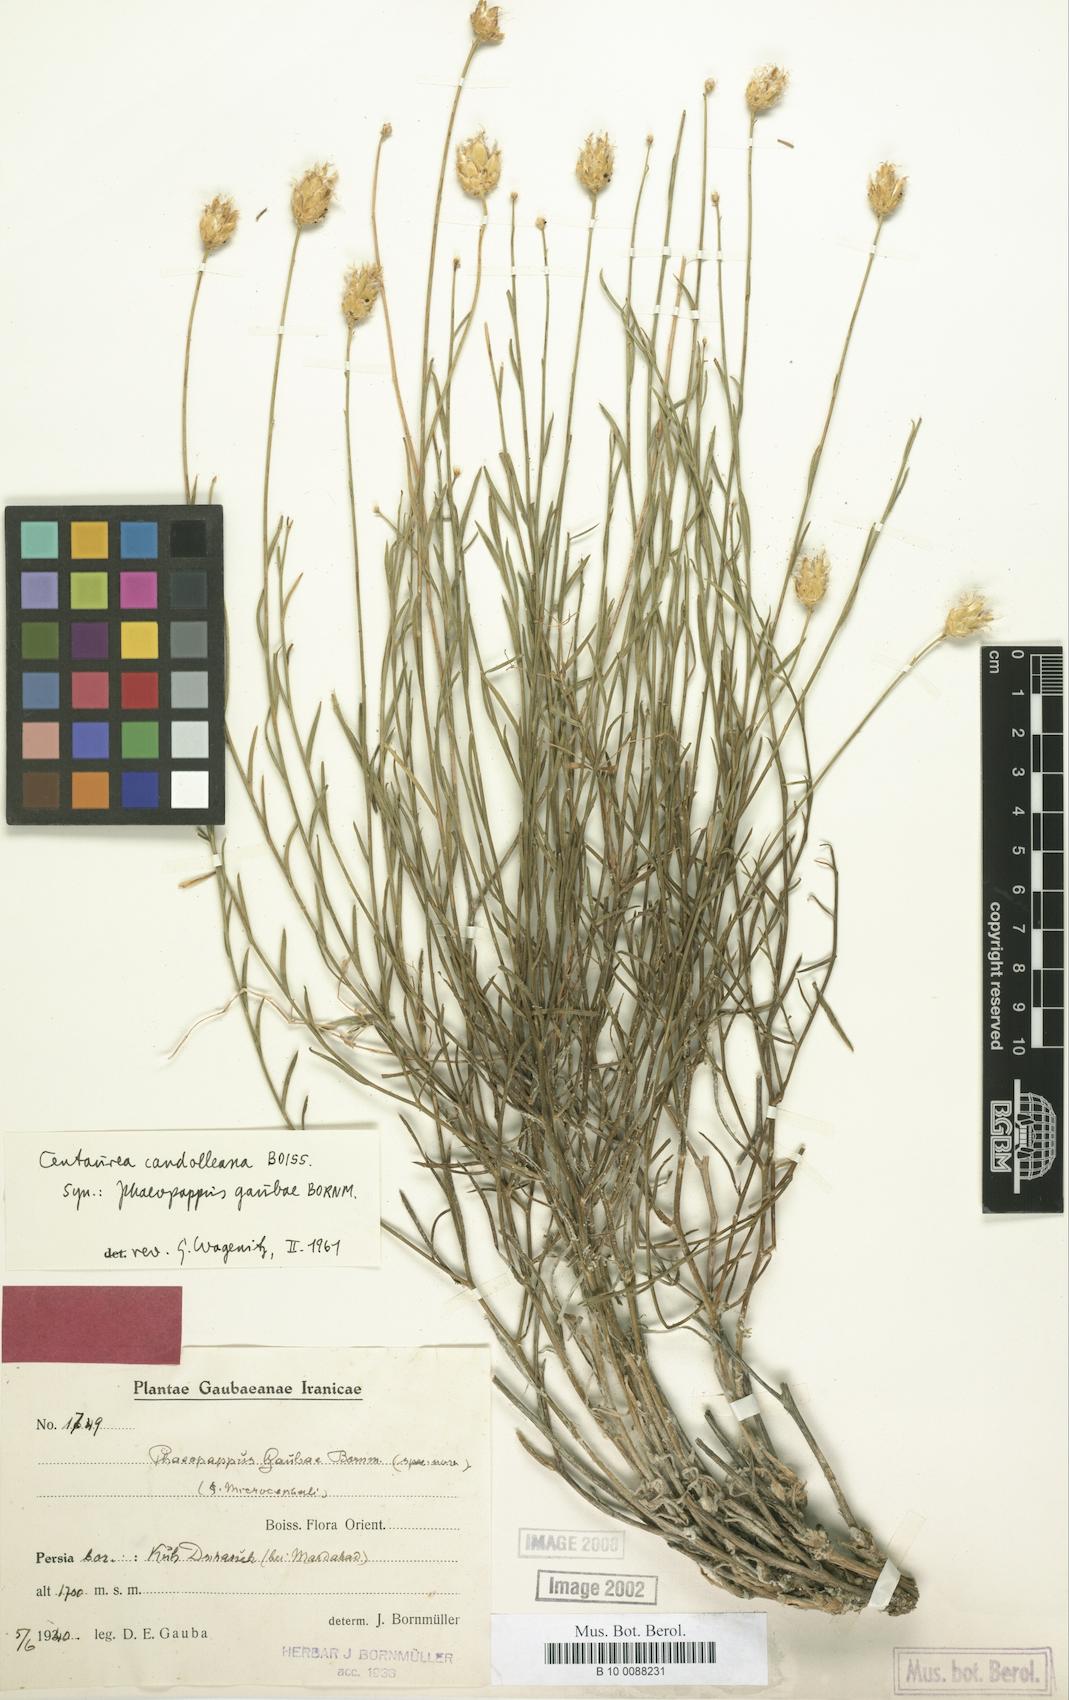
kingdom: Plantae
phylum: Tracheophyta
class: Magnoliopsida
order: Asterales
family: Asteraceae
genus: Centaurea
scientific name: Centaurea kotschyi
